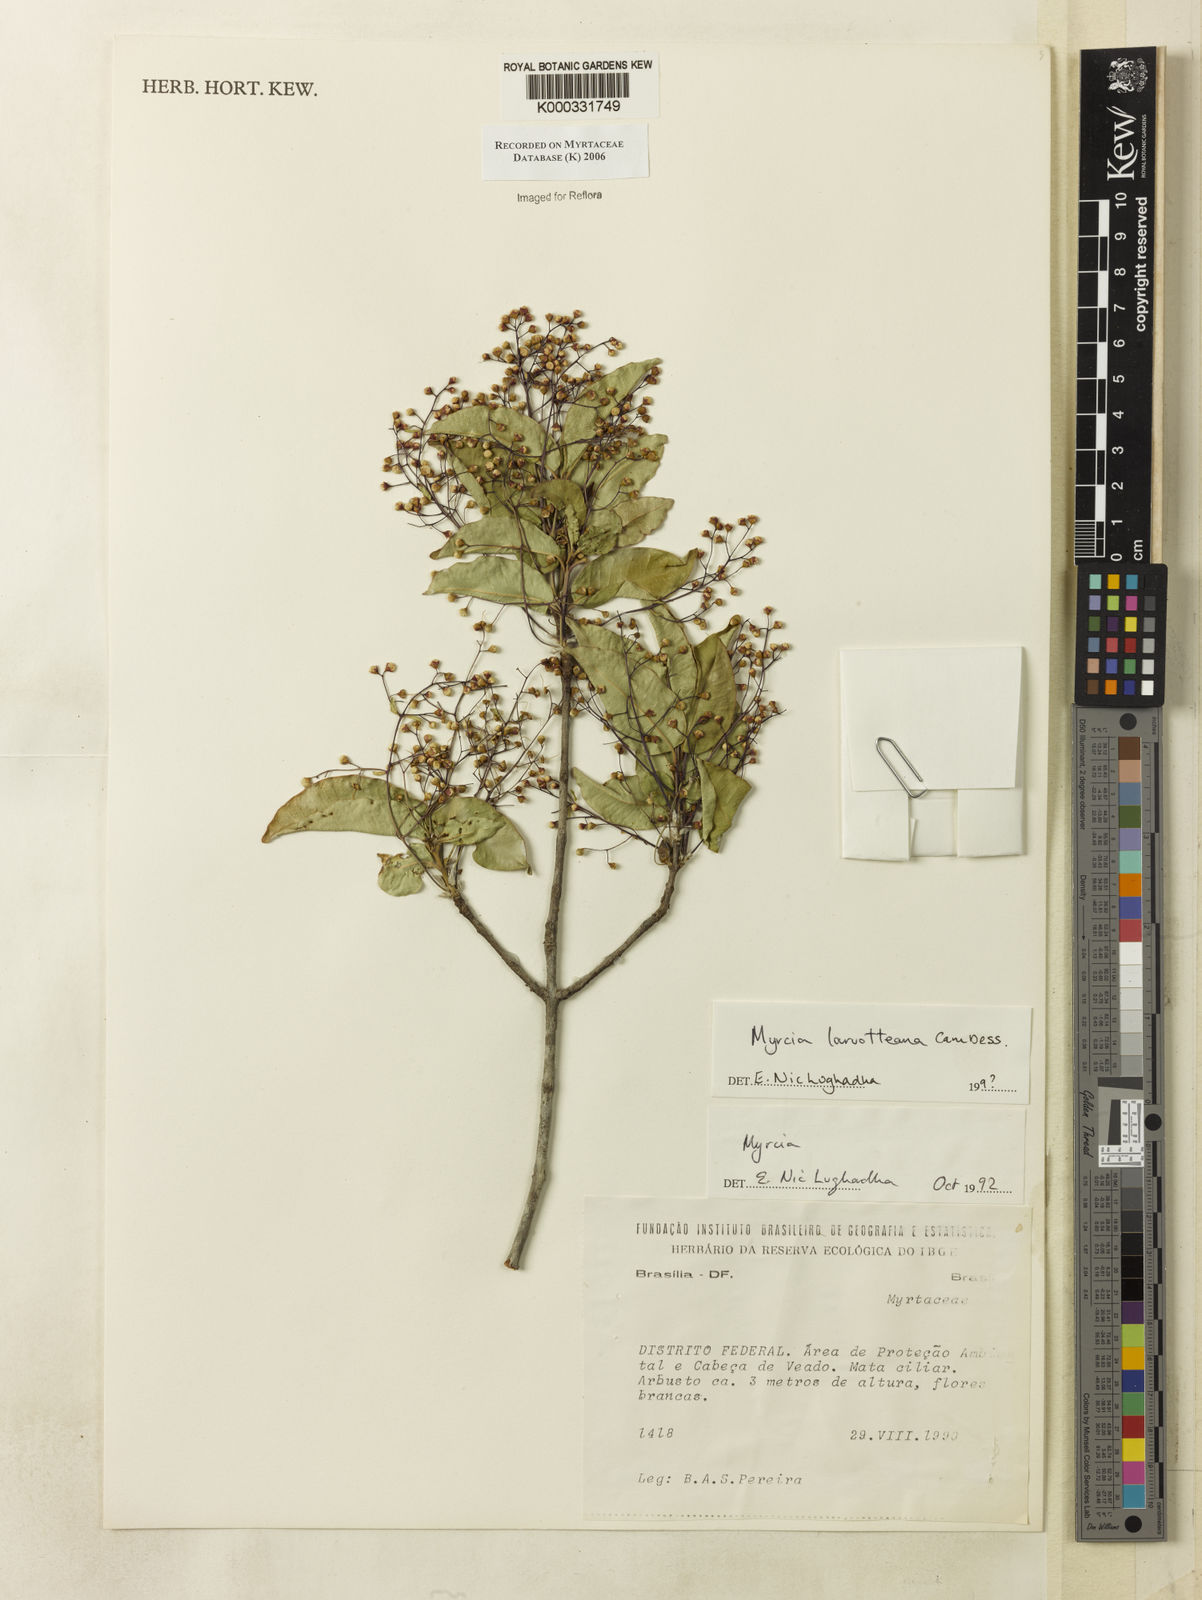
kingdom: Plantae
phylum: Tracheophyta
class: Magnoliopsida
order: Myrtales
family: Myrtaceae
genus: Myrcia
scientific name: Myrcia laruotteana
